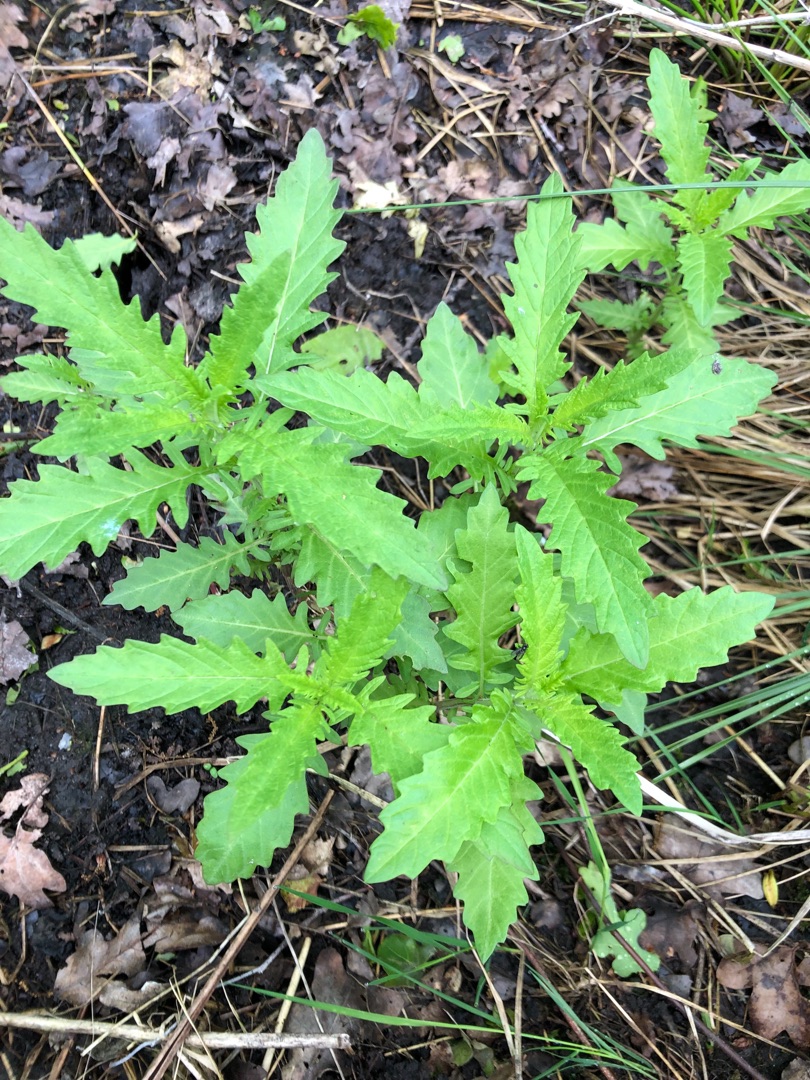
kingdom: Plantae
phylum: Tracheophyta
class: Magnoliopsida
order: Lamiales
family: Lamiaceae
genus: Lycopus
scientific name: Lycopus europaeus
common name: Sværtevæld
